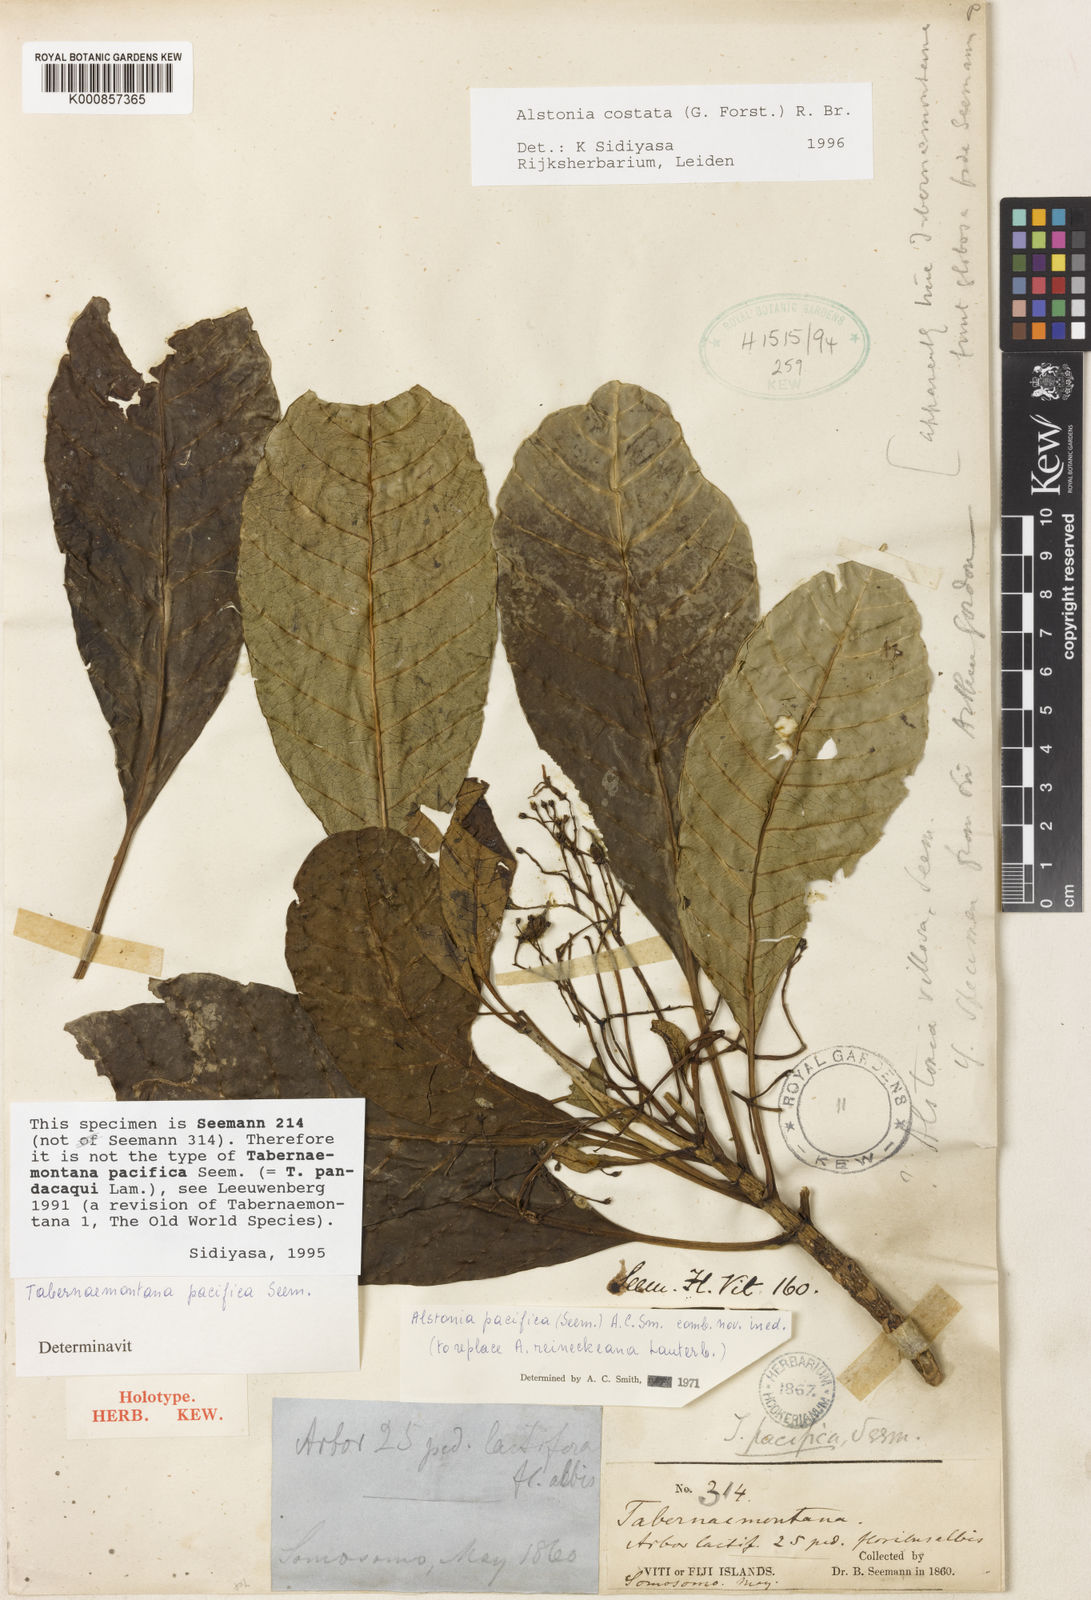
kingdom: Plantae
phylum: Tracheophyta
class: Magnoliopsida
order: Gentianales
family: Apocynaceae
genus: Alstonia
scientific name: Alstonia costata
